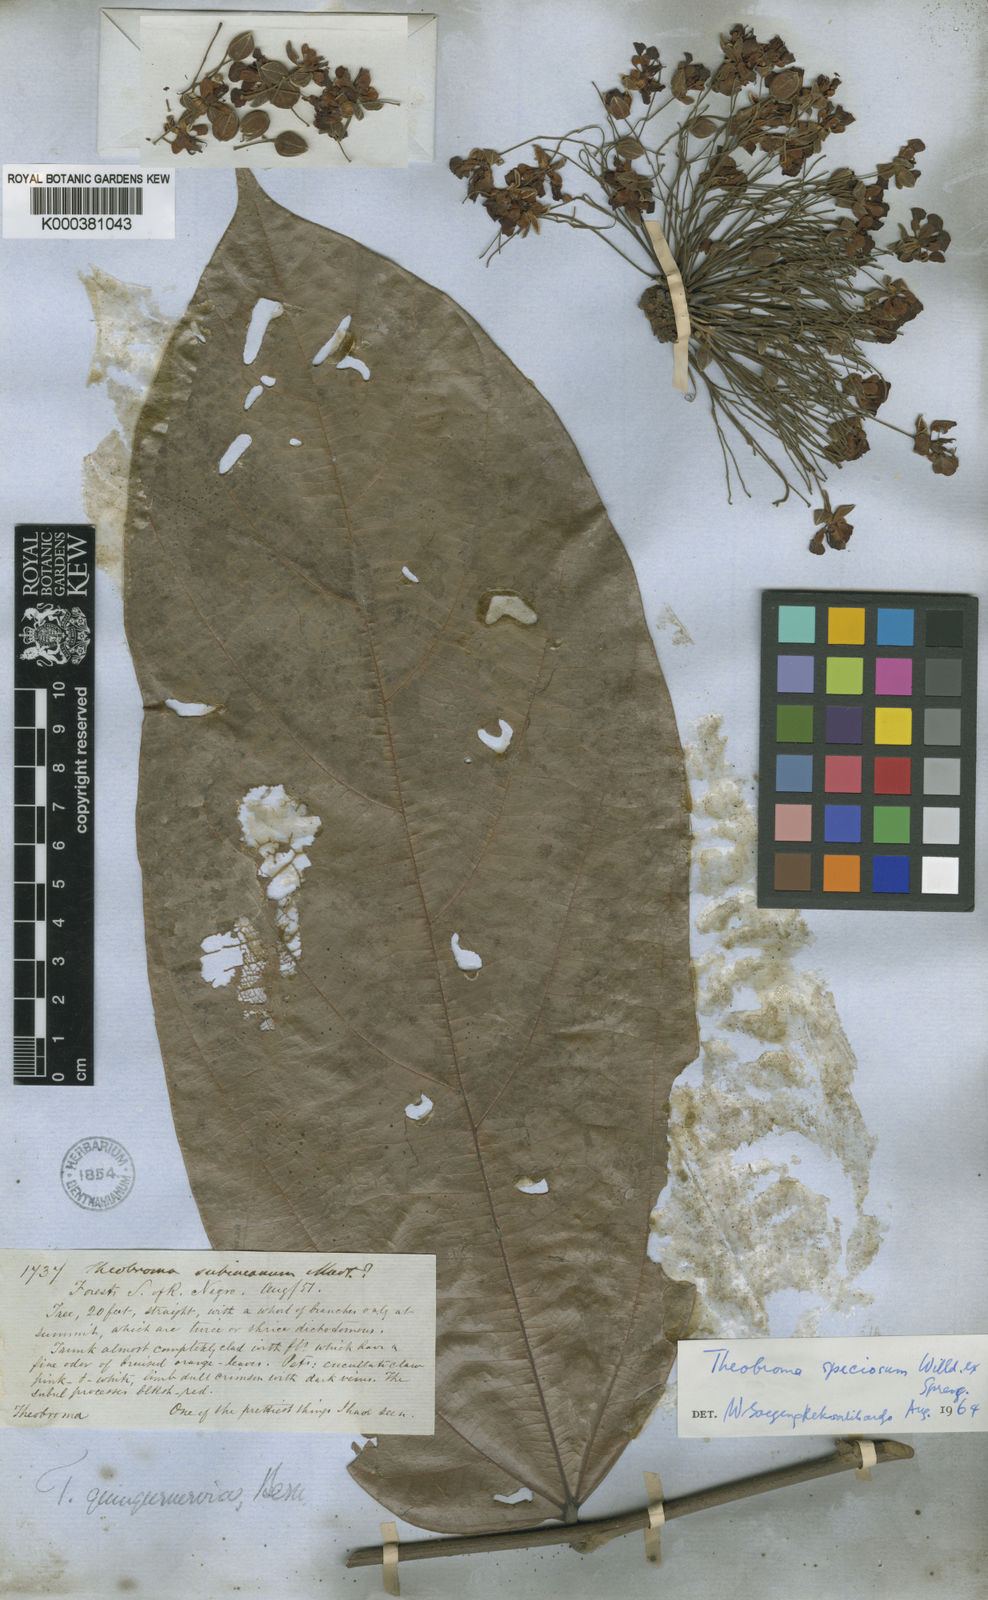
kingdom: Plantae
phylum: Tracheophyta
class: Magnoliopsida
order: Malvales
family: Malvaceae
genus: Theobroma
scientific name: Theobroma speciosum
